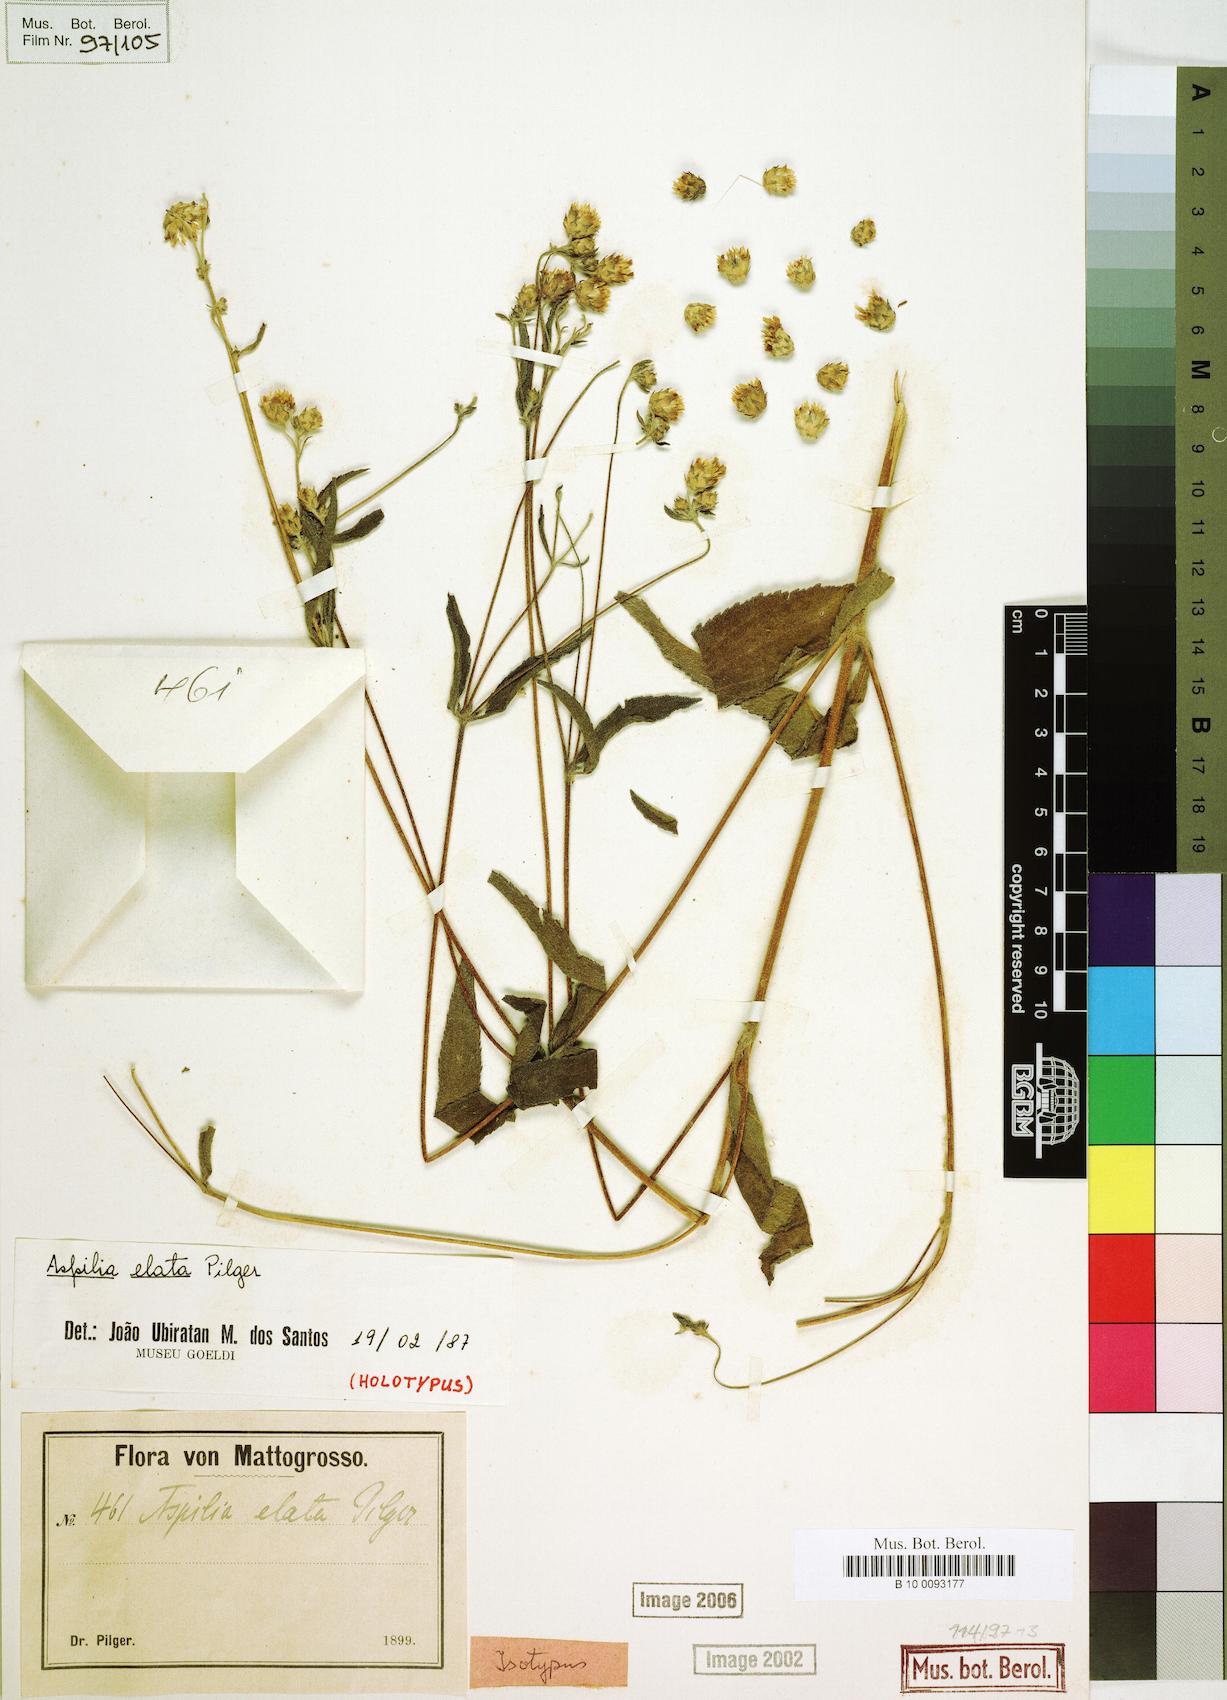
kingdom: Plantae
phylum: Tracheophyta
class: Magnoliopsida
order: Asterales
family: Asteraceae
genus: Wedelia
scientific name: Wedelia elata
